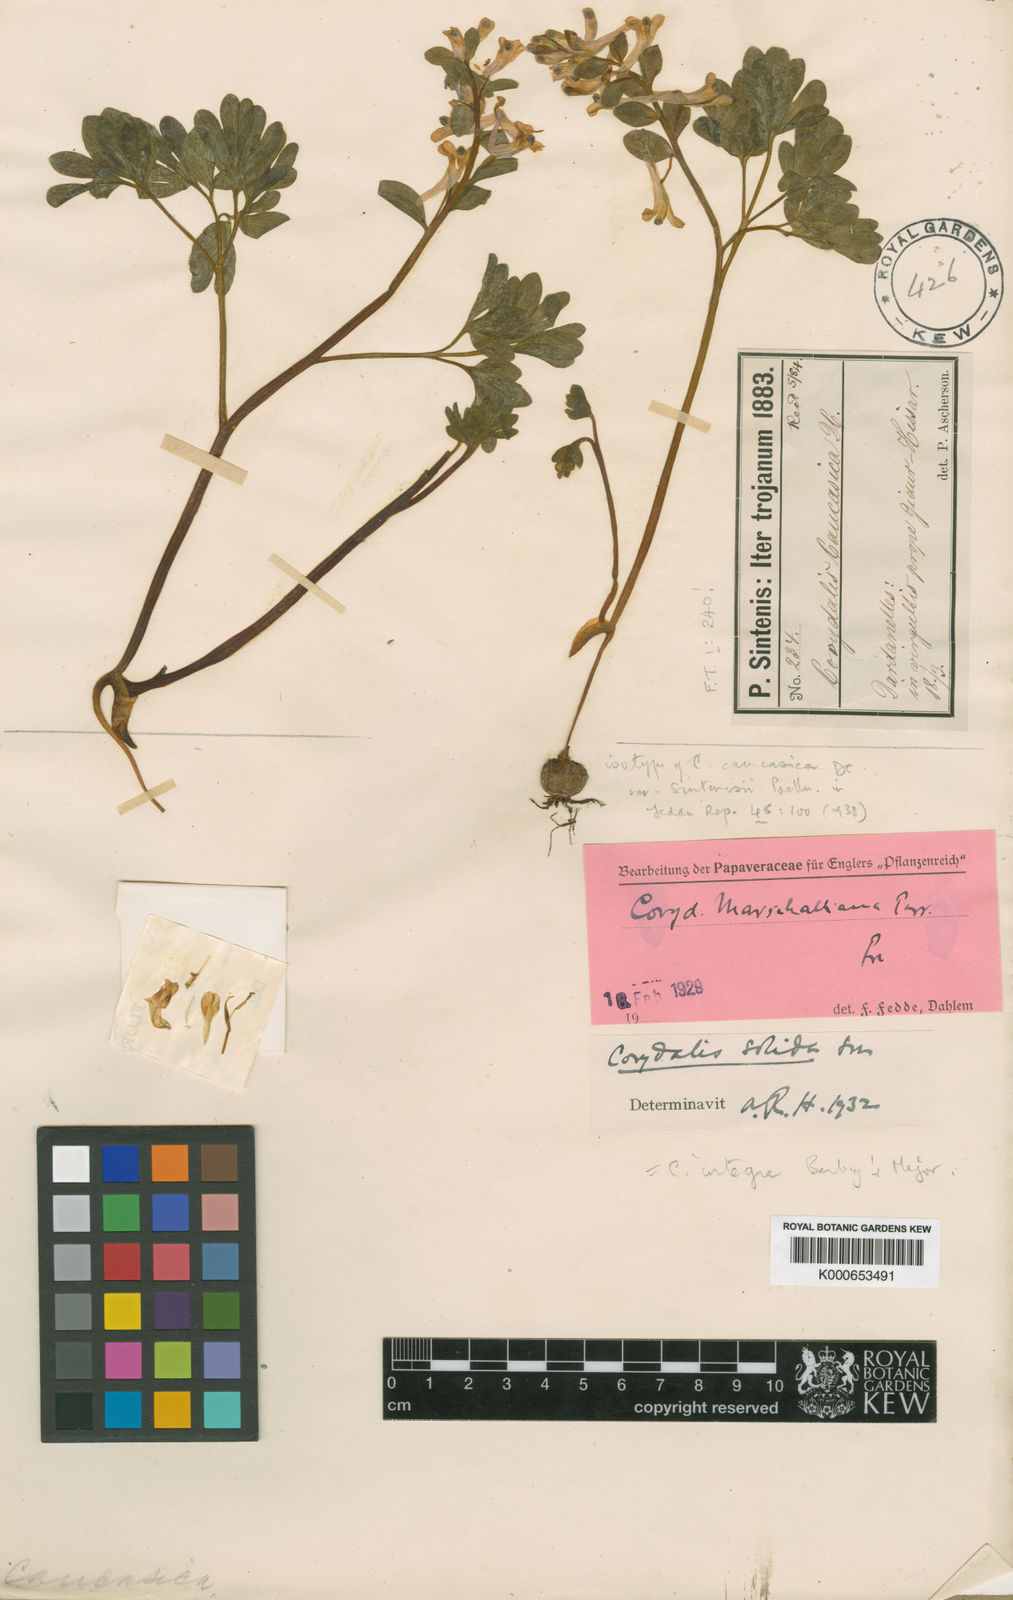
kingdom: Plantae
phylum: Tracheophyta
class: Magnoliopsida
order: Ranunculales
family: Papaveraceae
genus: Corydalis
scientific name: Corydalis integra
